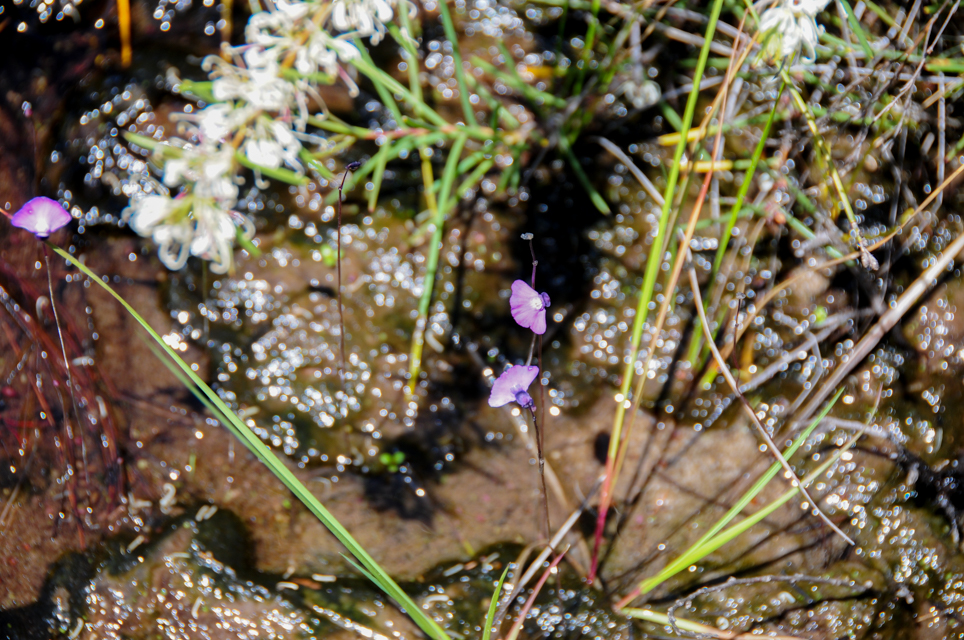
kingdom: Plantae
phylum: Tracheophyta
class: Magnoliopsida
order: Lamiales
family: Lentibulariaceae
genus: Utricularia
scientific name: Utricularia dichotoma
